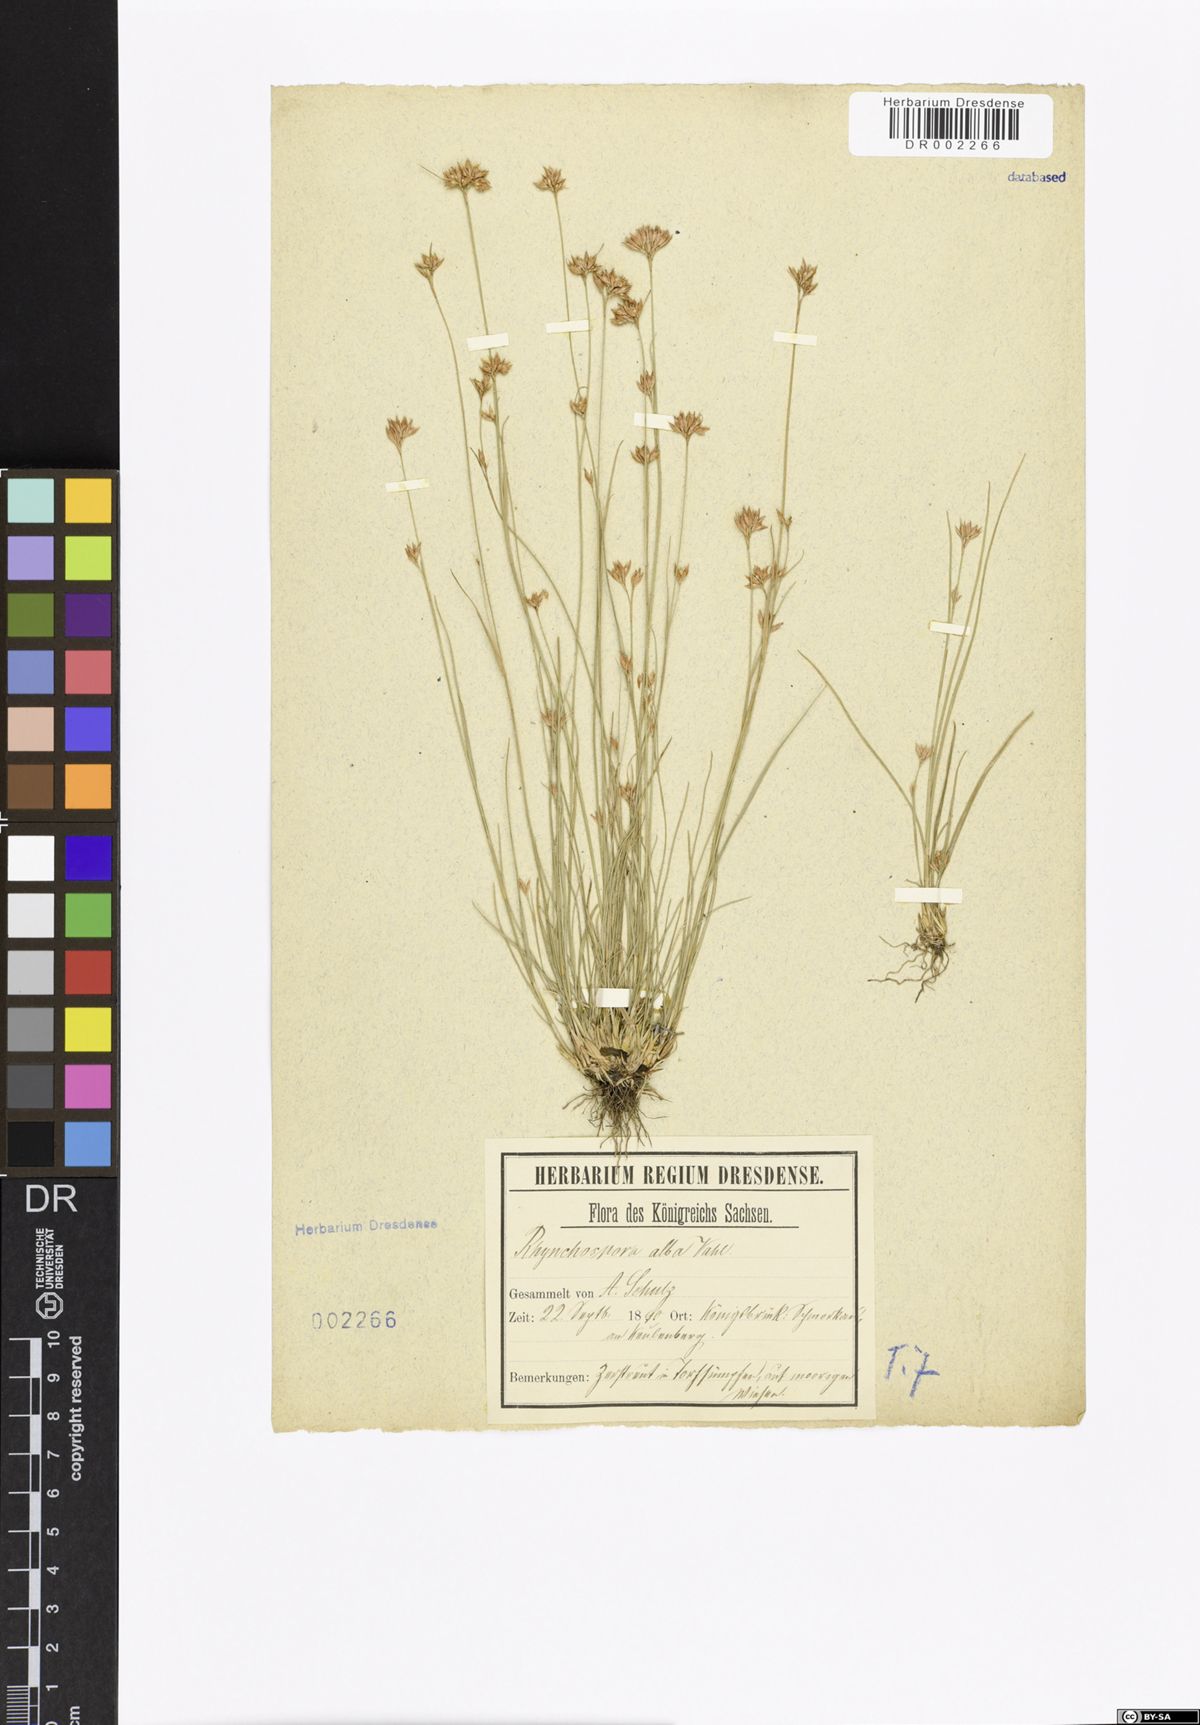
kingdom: Plantae
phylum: Tracheophyta
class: Liliopsida
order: Poales
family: Cyperaceae
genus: Rhynchospora
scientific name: Rhynchospora alba
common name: White beak-sedge
